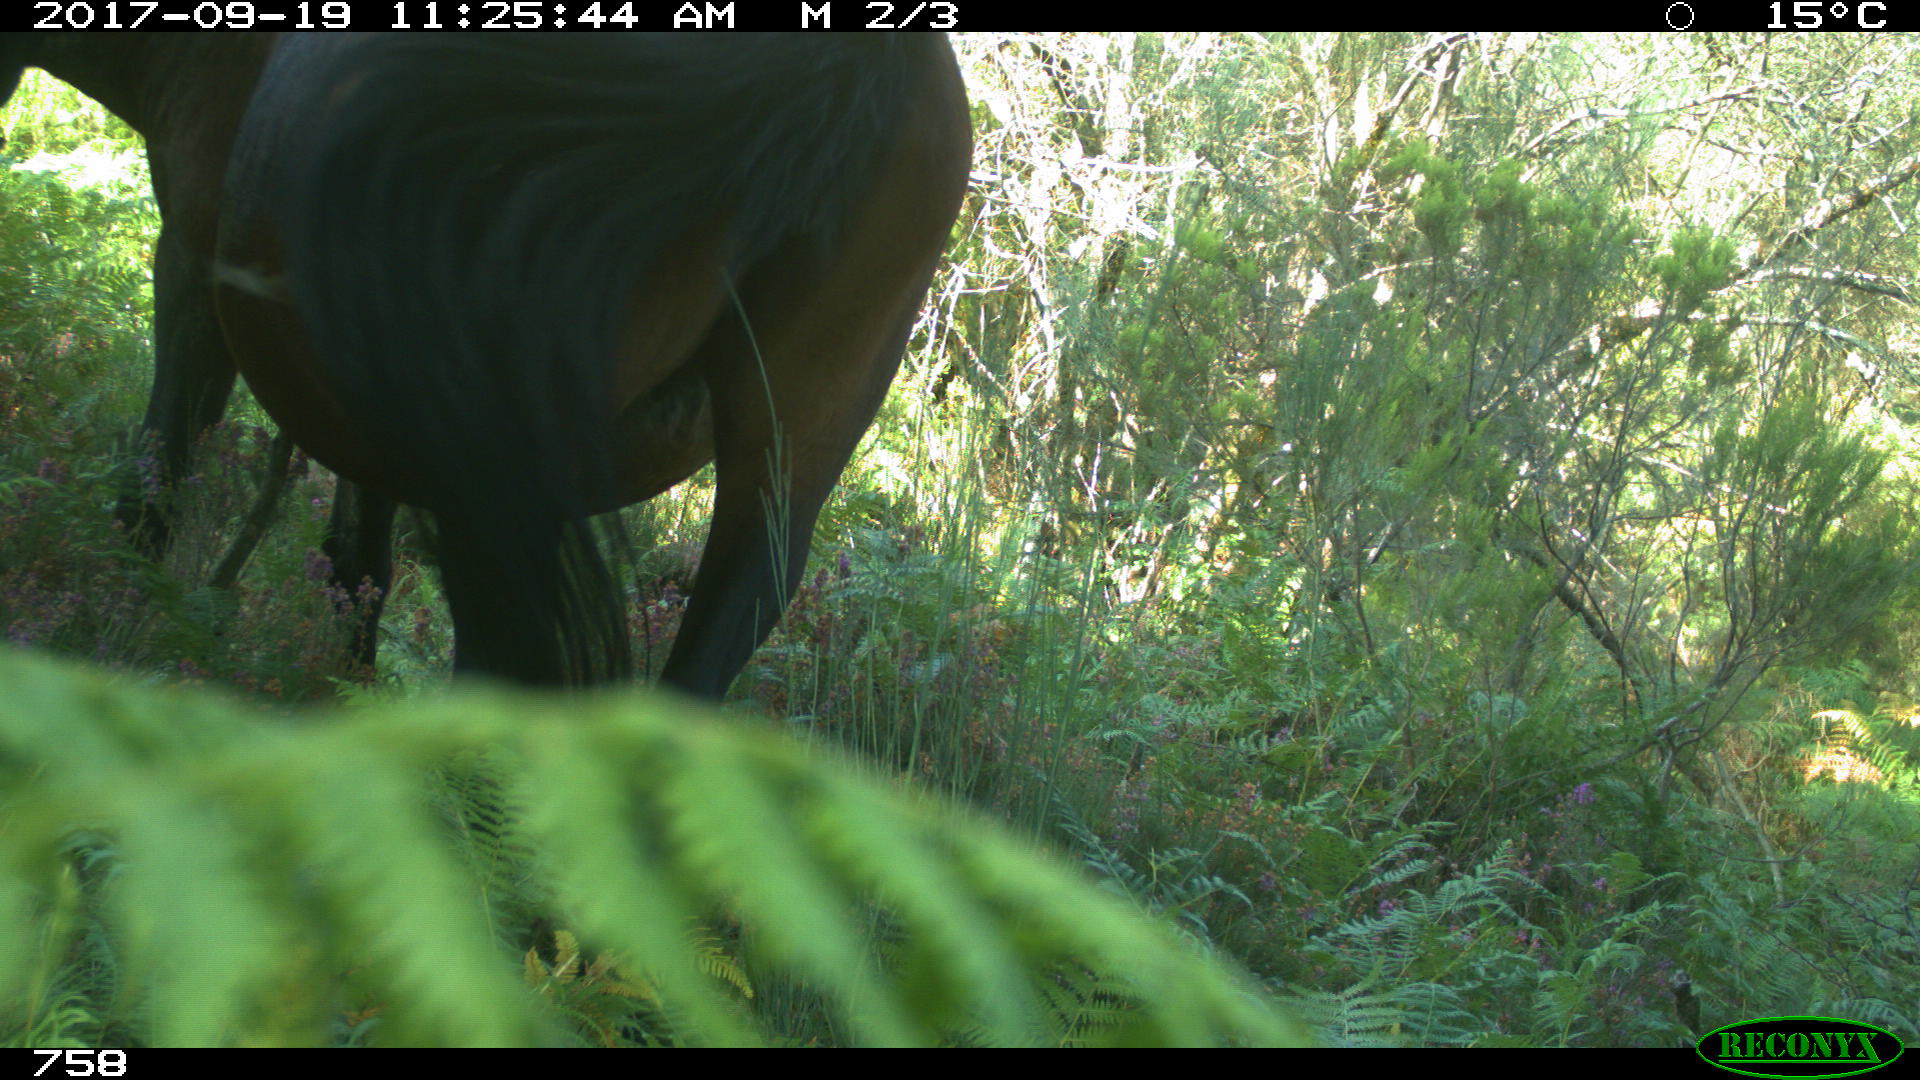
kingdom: Animalia
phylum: Chordata
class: Mammalia
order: Perissodactyla
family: Equidae
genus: Equus
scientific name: Equus caballus
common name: Horse
